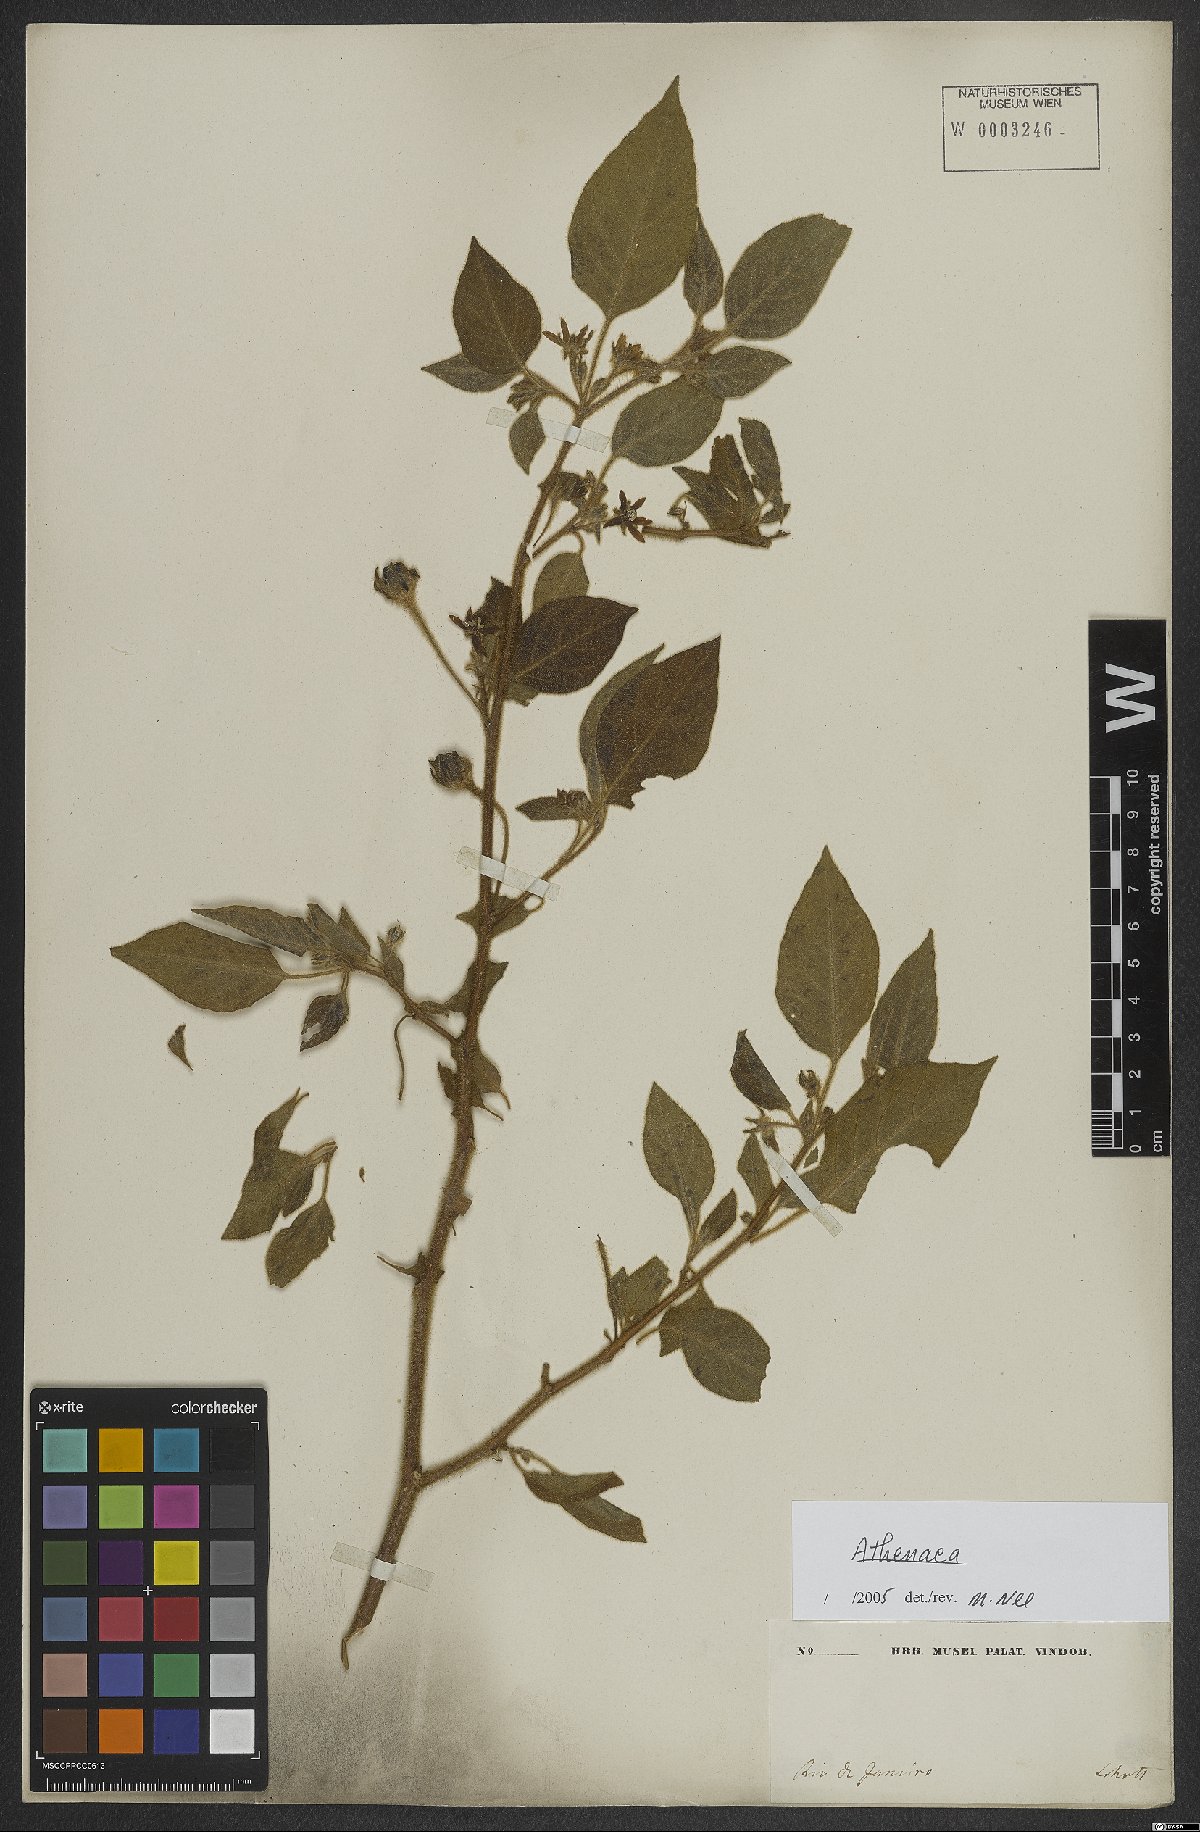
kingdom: Plantae
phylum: Tracheophyta
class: Magnoliopsida
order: Solanales
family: Solanaceae
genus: Athenaea
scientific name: Athenaea
